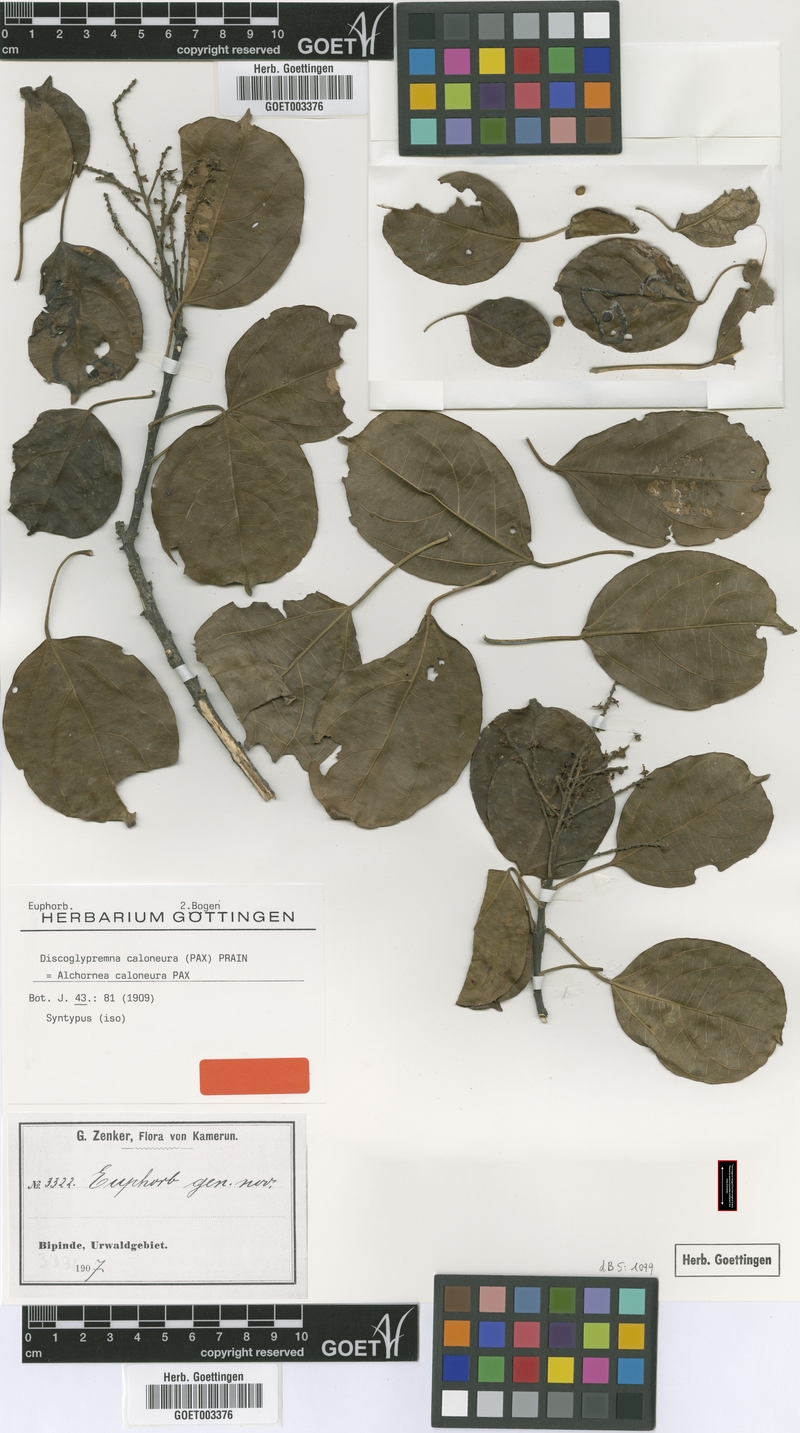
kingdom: Plantae
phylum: Tracheophyta
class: Magnoliopsida
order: Malpighiales
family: Euphorbiaceae
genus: Discoglypremna
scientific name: Discoglypremna caloneura
